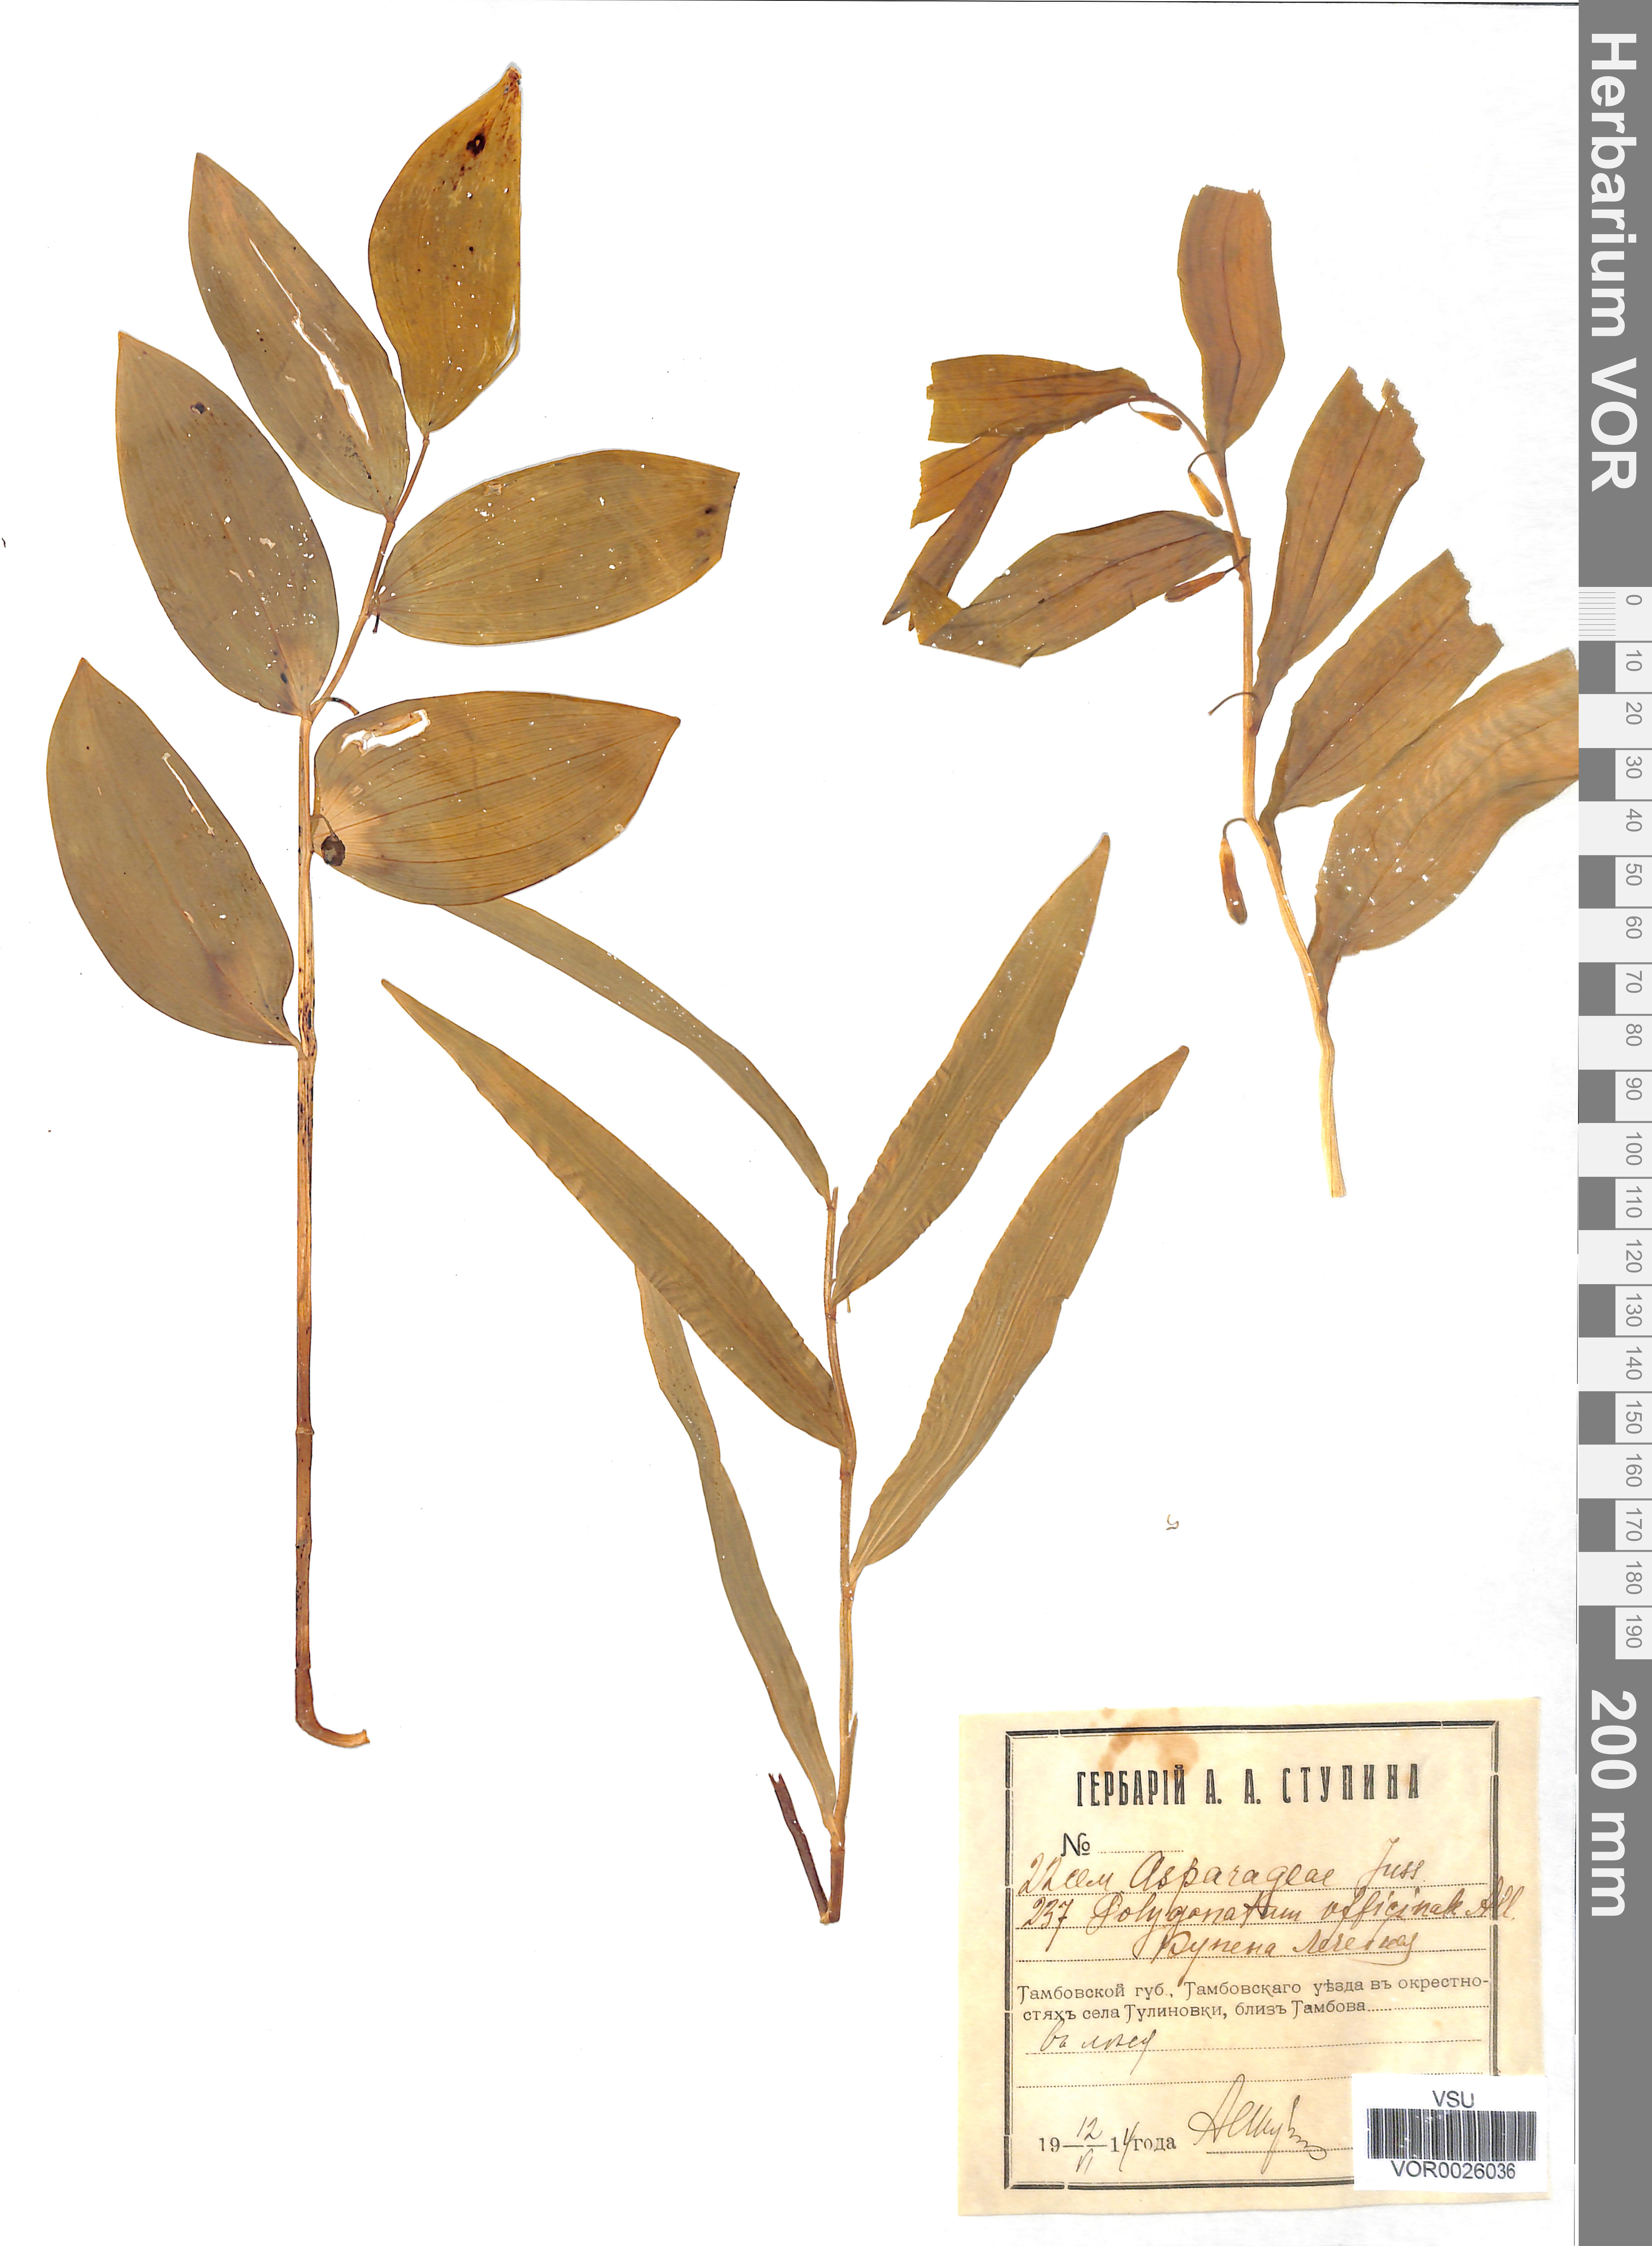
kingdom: Plantae
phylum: Tracheophyta
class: Liliopsida
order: Asparagales
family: Asparagaceae
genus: Polygonatum
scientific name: Polygonatum odoratum
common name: Angular solomon's-seal
